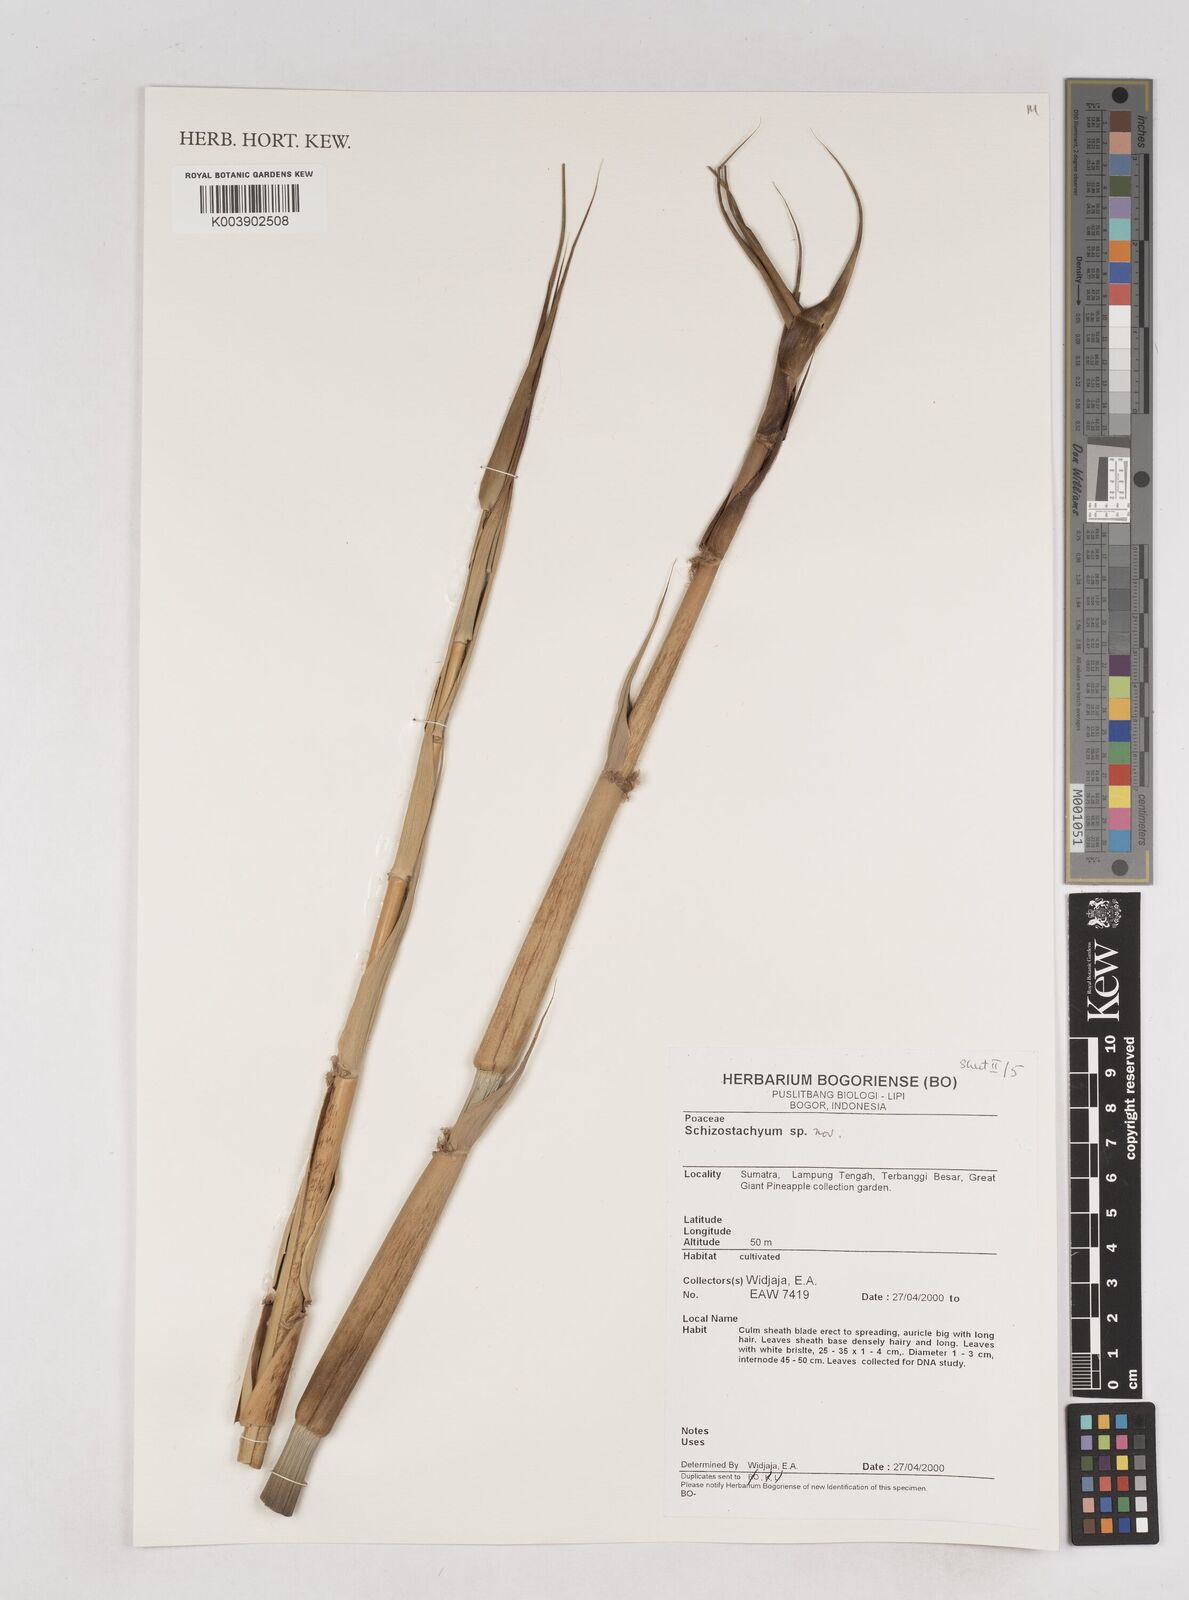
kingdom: Plantae
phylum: Tracheophyta
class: Liliopsida
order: Poales
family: Poaceae
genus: Schizostachyum
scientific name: Schizostachyum
